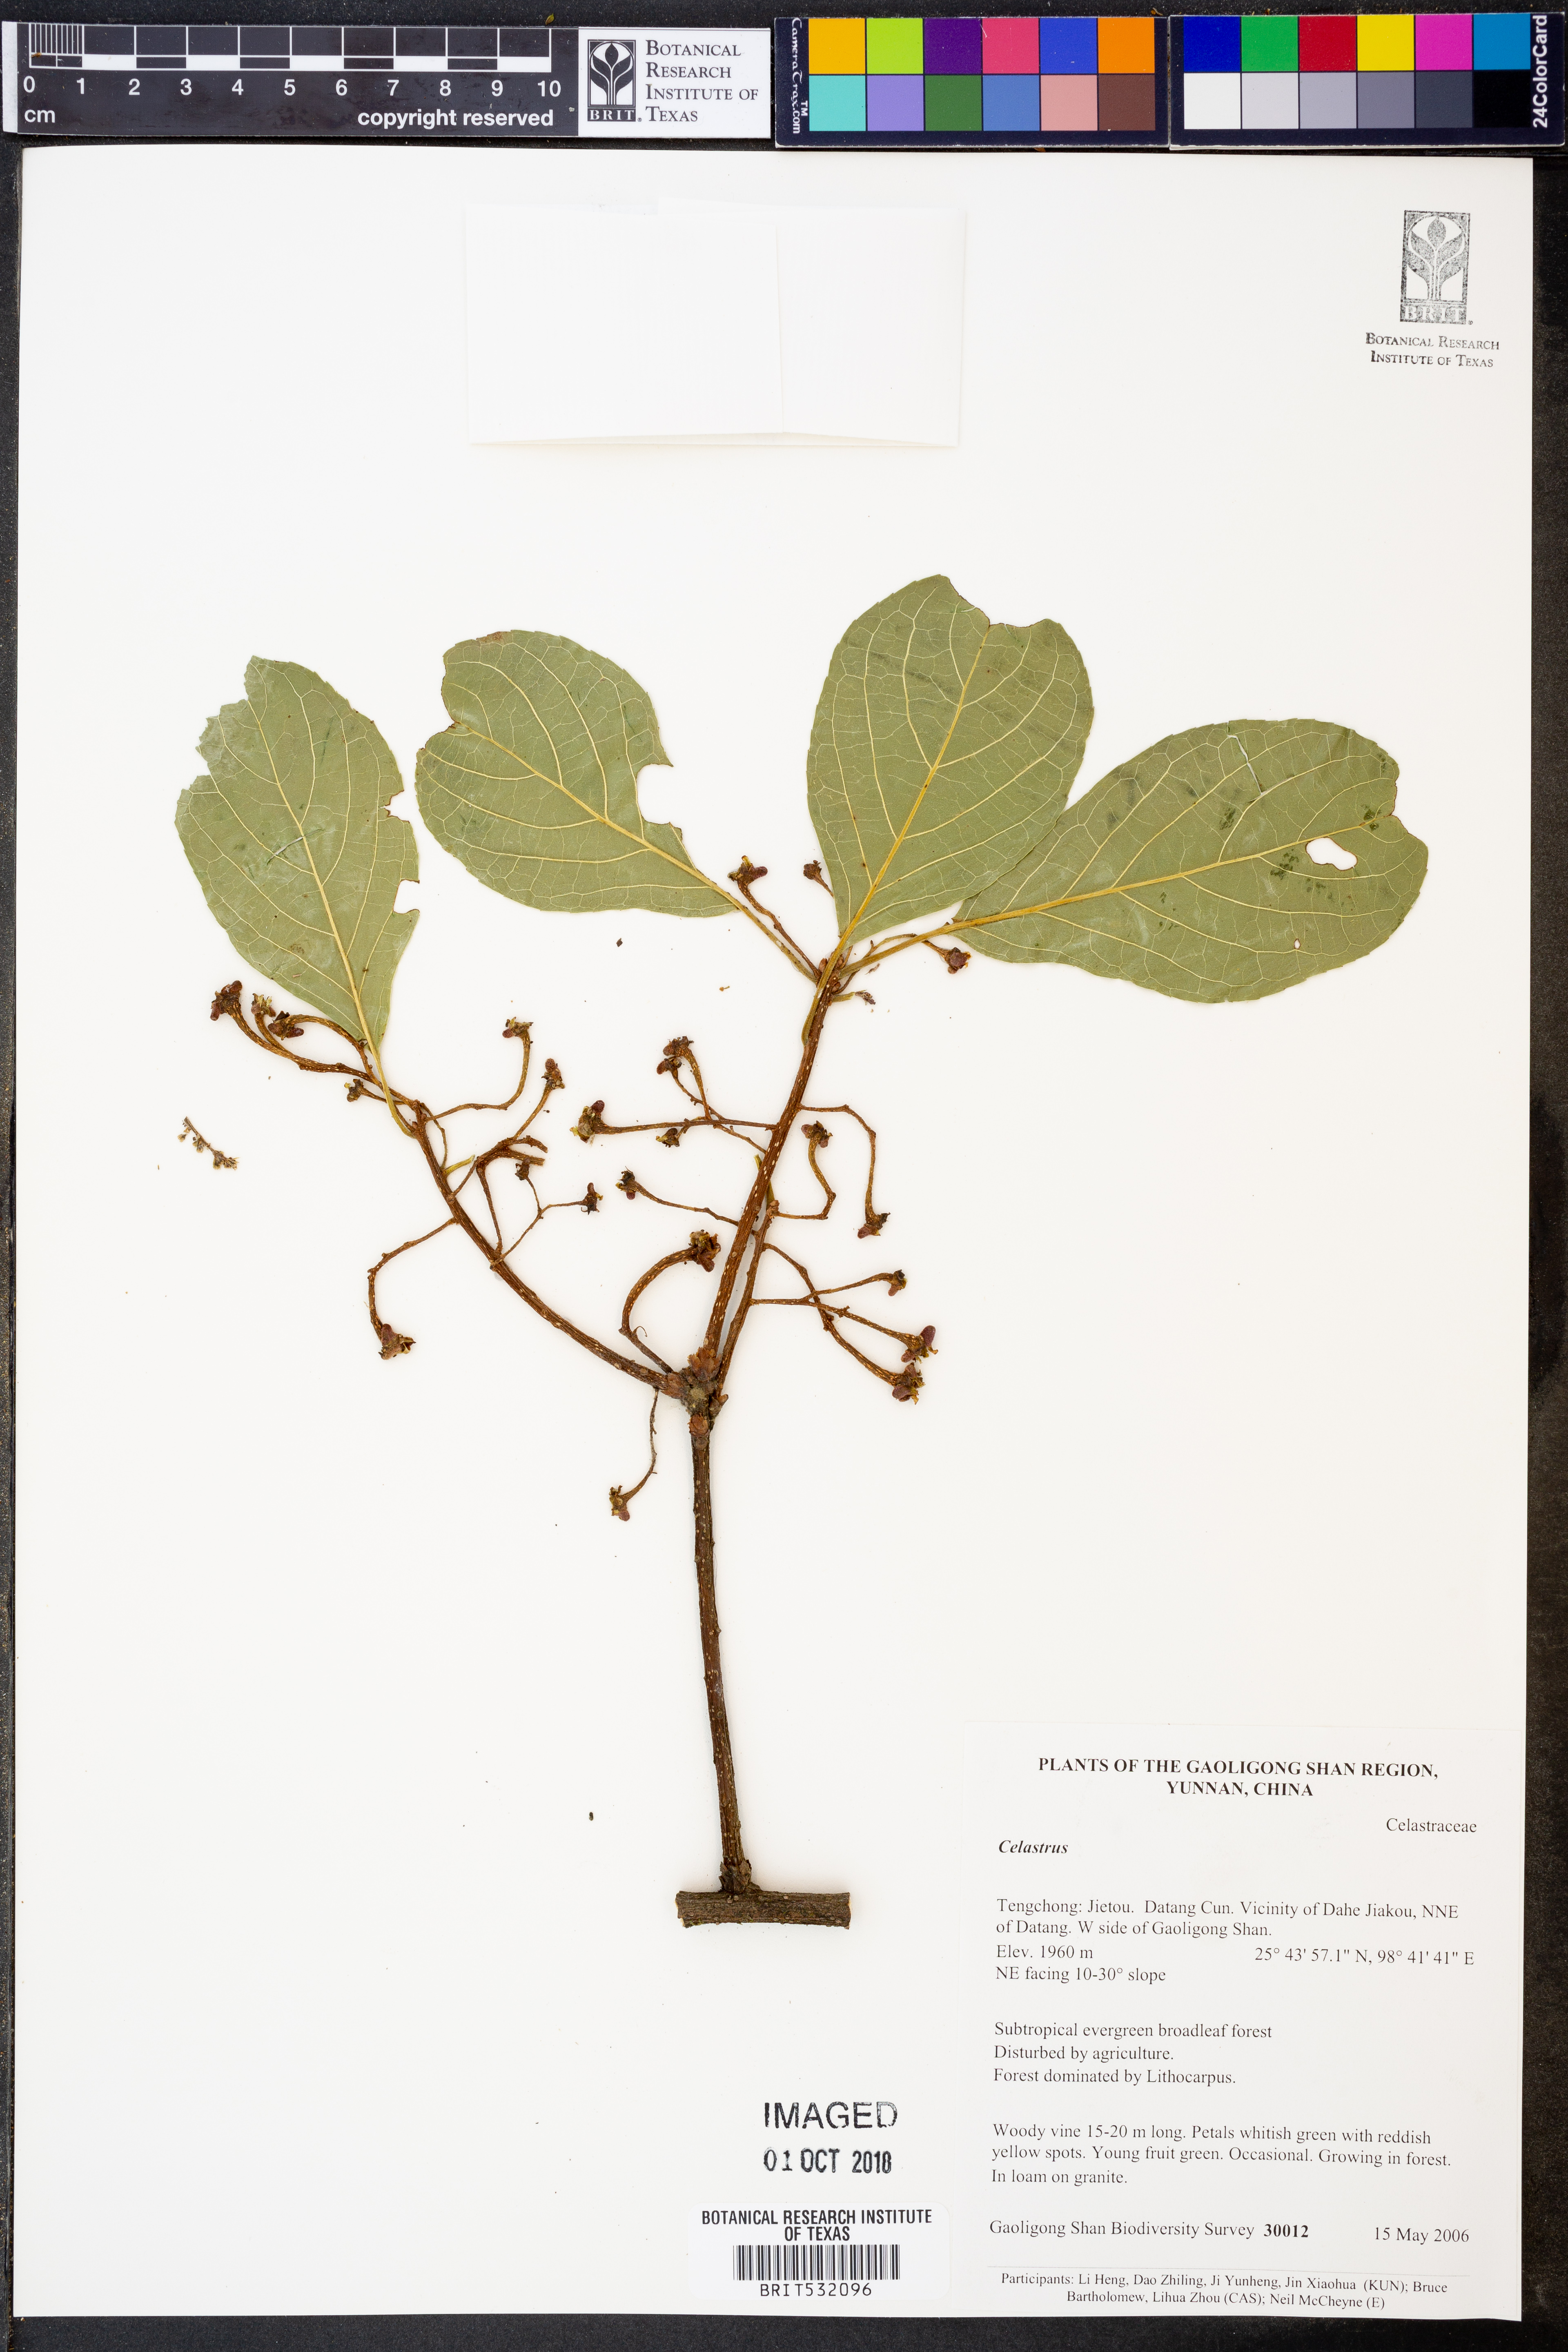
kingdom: Plantae
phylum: Tracheophyta
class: Magnoliopsida
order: Celastrales
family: Celastraceae
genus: Celastrus
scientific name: Celastrus
